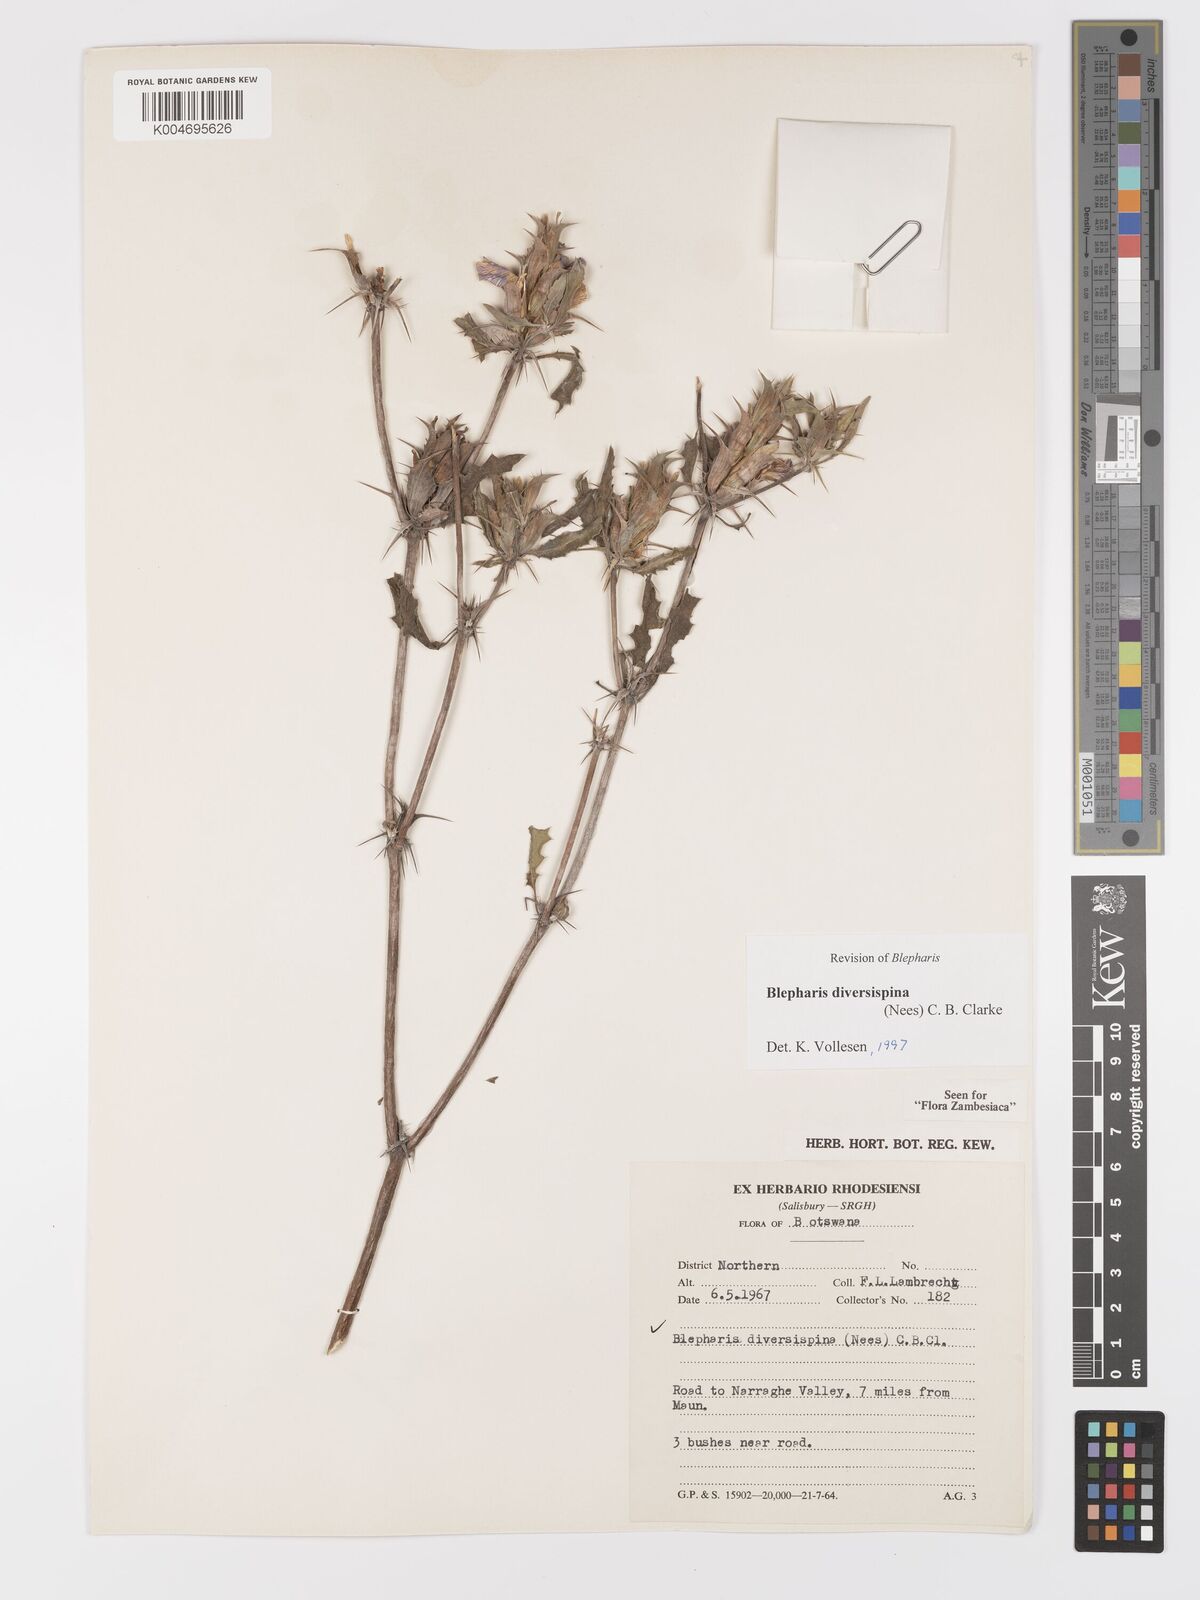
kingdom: Plantae
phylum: Tracheophyta
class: Magnoliopsida
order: Lamiales
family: Acanthaceae
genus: Blepharis
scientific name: Blepharis diversispina
